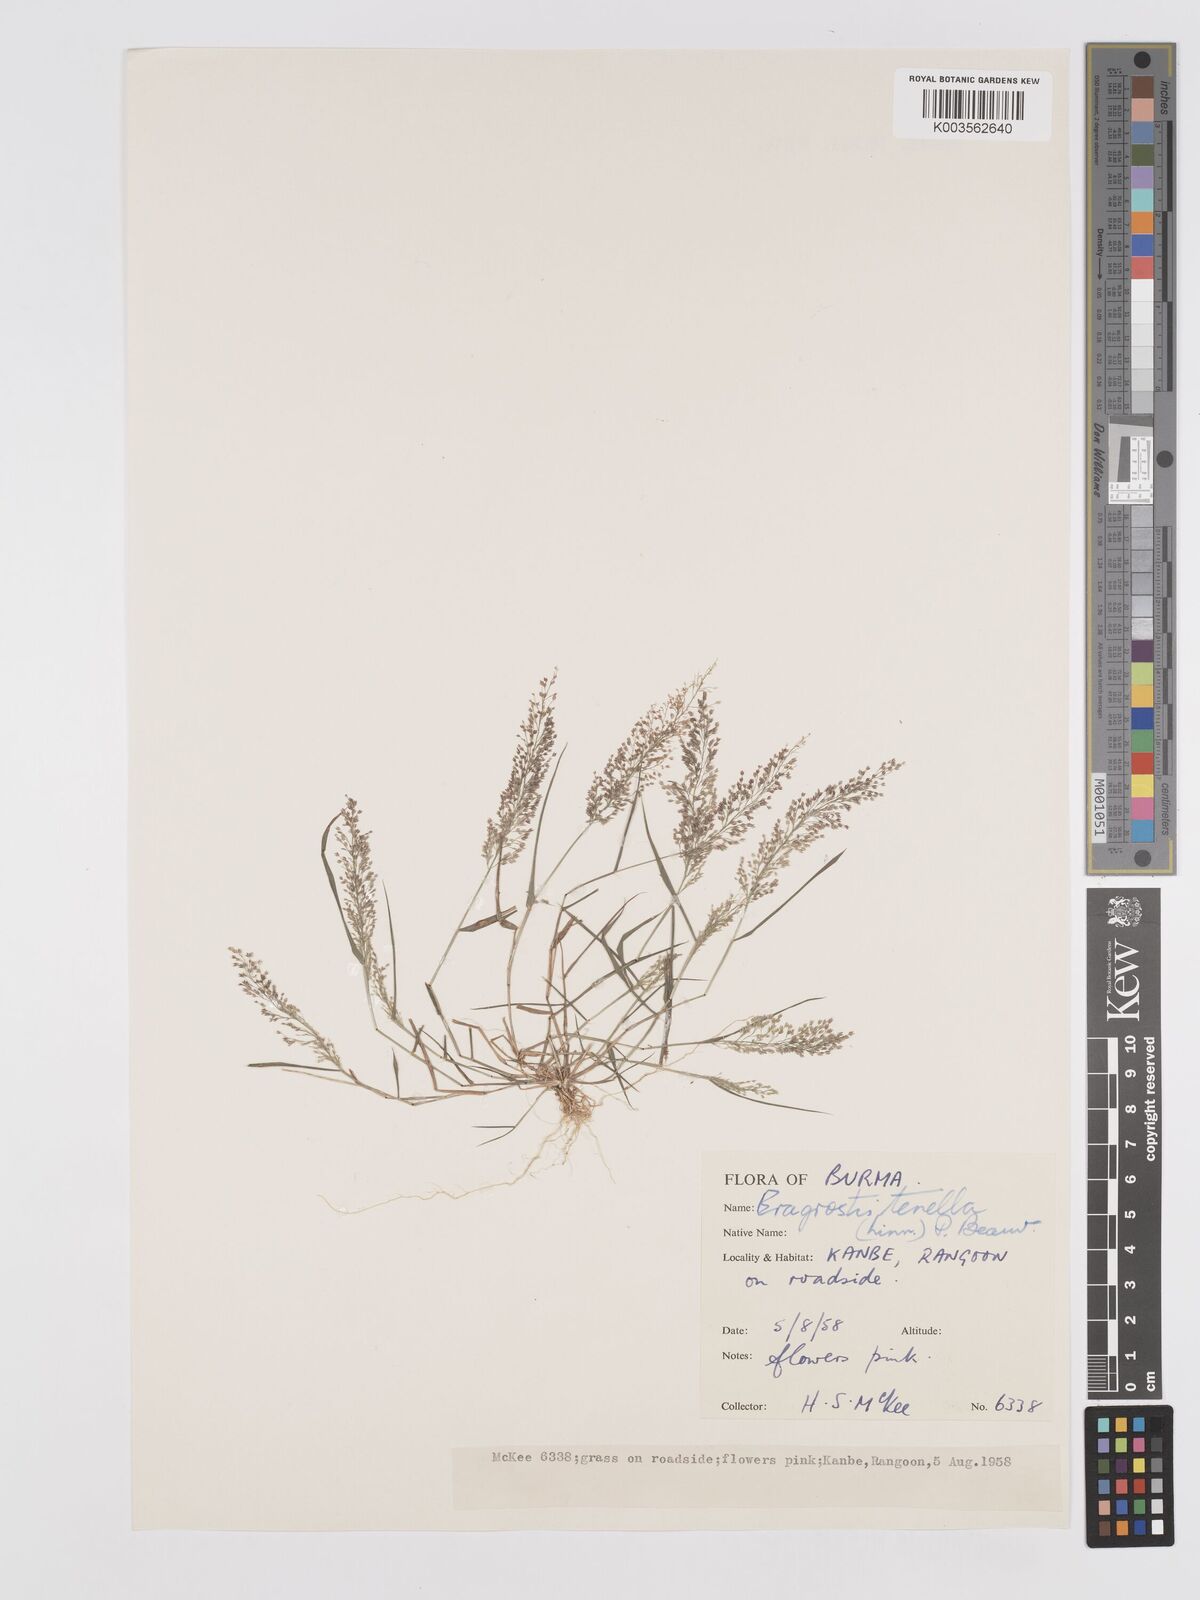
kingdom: Plantae
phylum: Tracheophyta
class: Liliopsida
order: Poales
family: Poaceae
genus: Eragrostis
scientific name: Eragrostis tenella
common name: Japanese lovegrass
